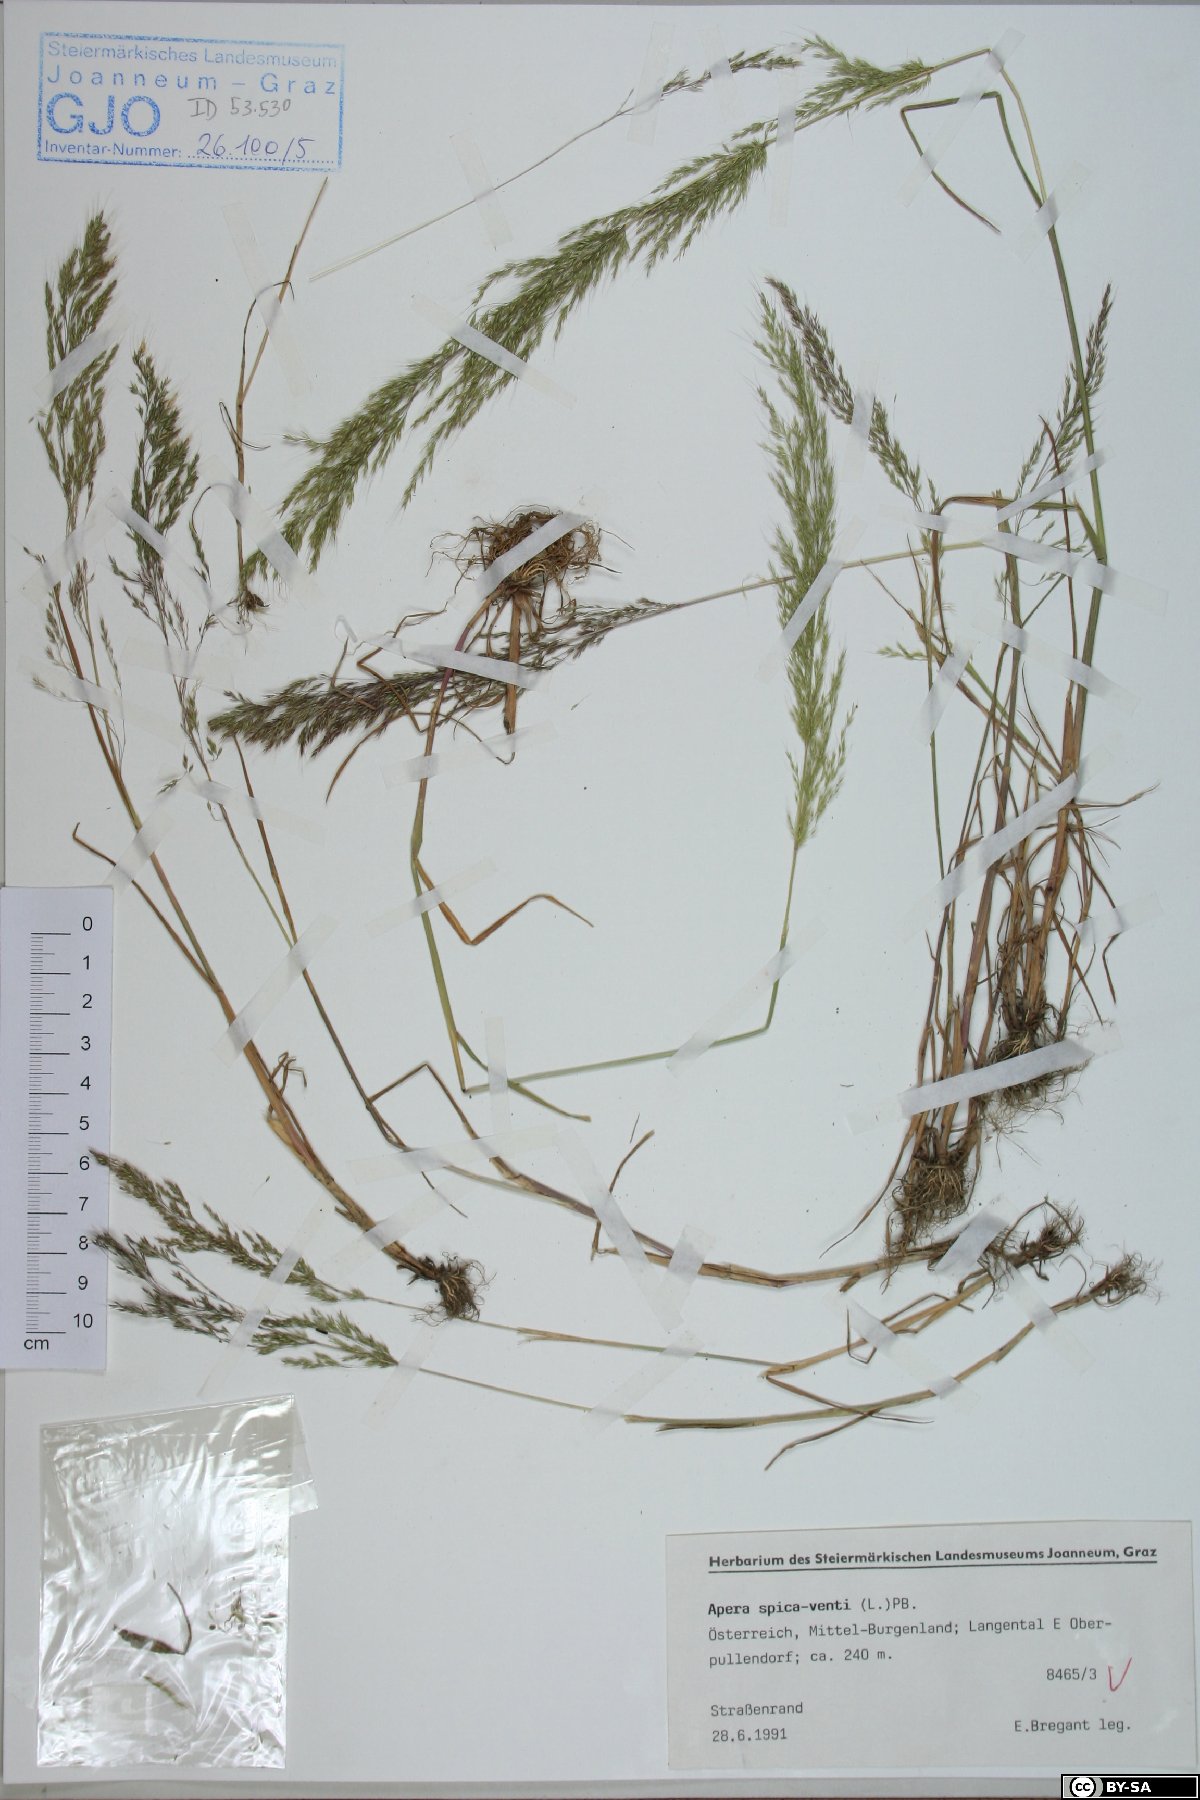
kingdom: Plantae
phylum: Tracheophyta
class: Liliopsida
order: Poales
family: Poaceae
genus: Apera
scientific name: Apera spica-venti
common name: Loose silky-bent
